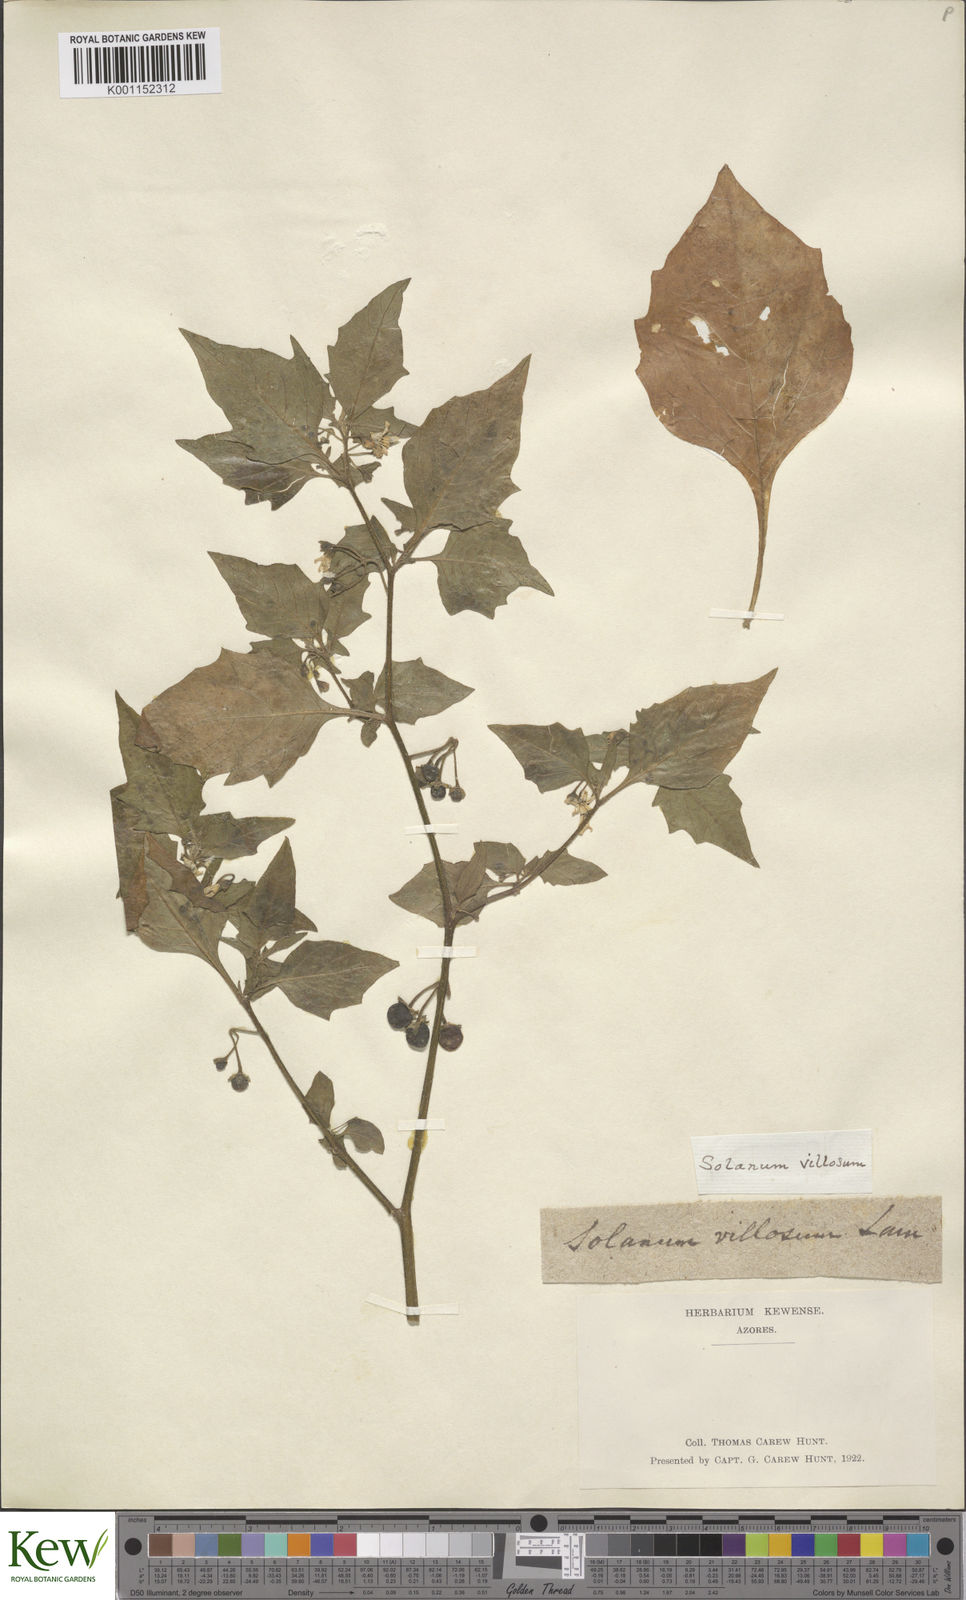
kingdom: Plantae
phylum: Tracheophyta
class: Magnoliopsida
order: Solanales
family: Solanaceae
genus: Solanum
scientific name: Solanum villosum
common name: Red nightshade
